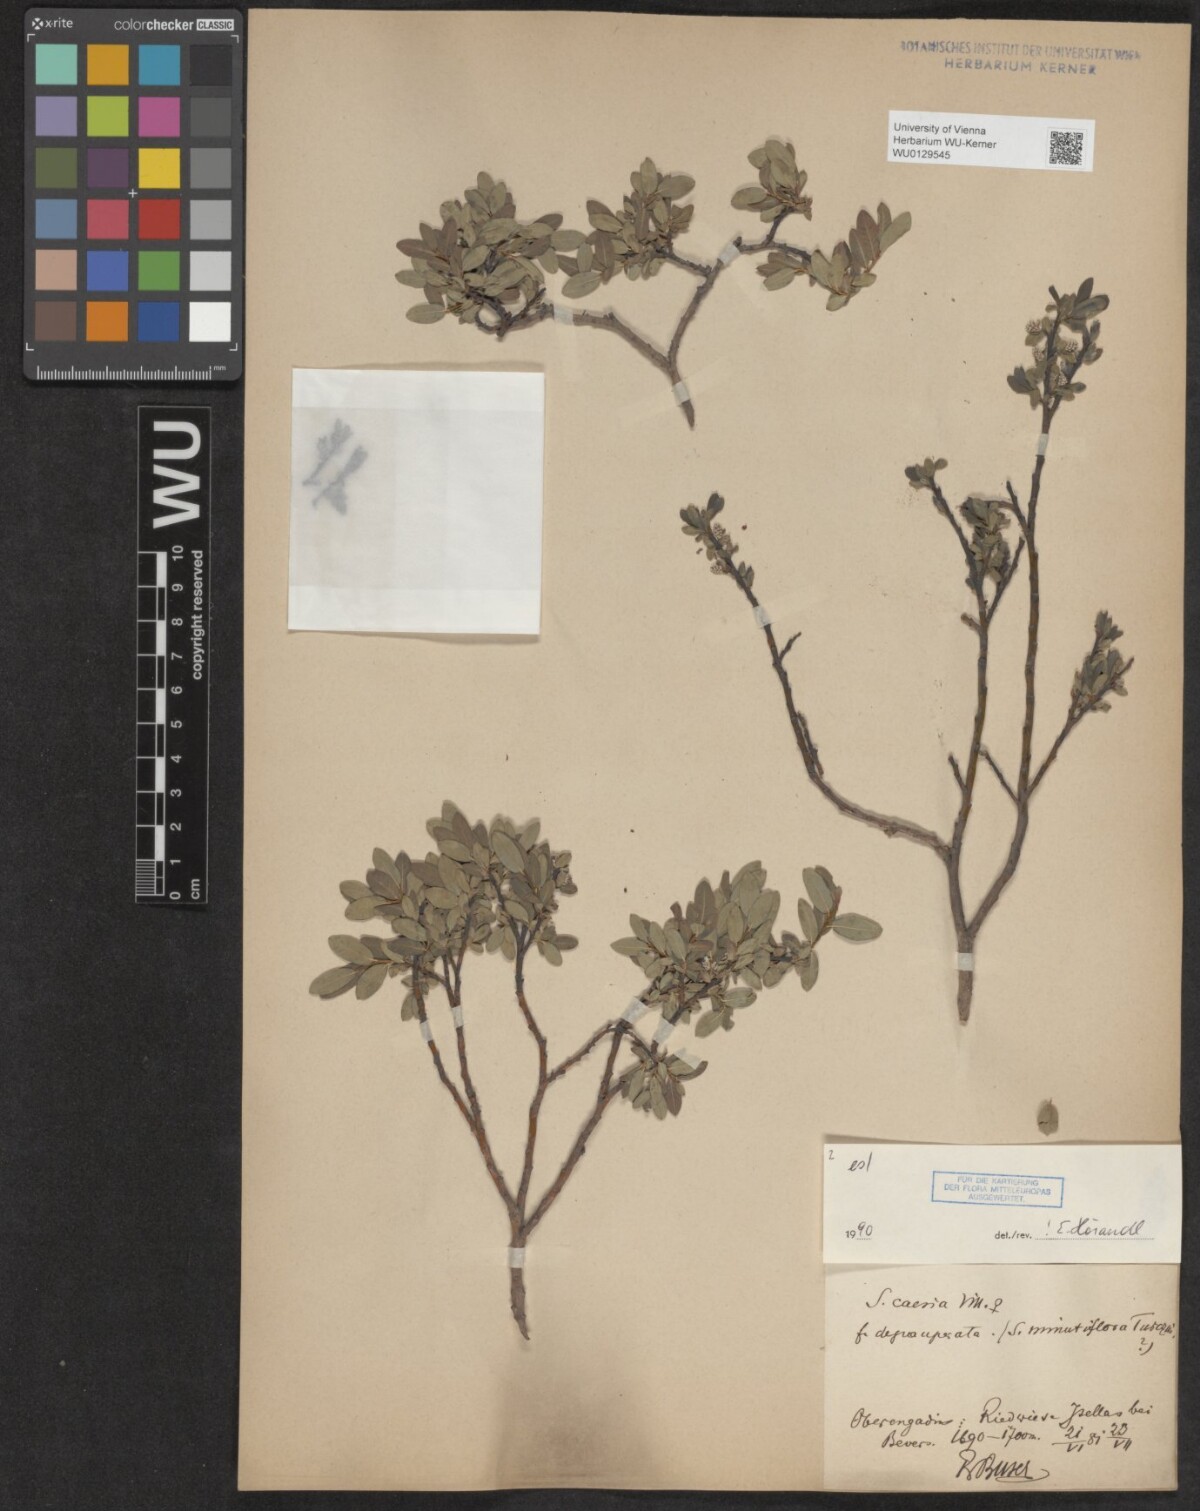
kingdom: Plantae
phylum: Tracheophyta
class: Magnoliopsida
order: Malpighiales
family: Salicaceae
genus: Salix
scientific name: Salix caesia
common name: Blue willow
